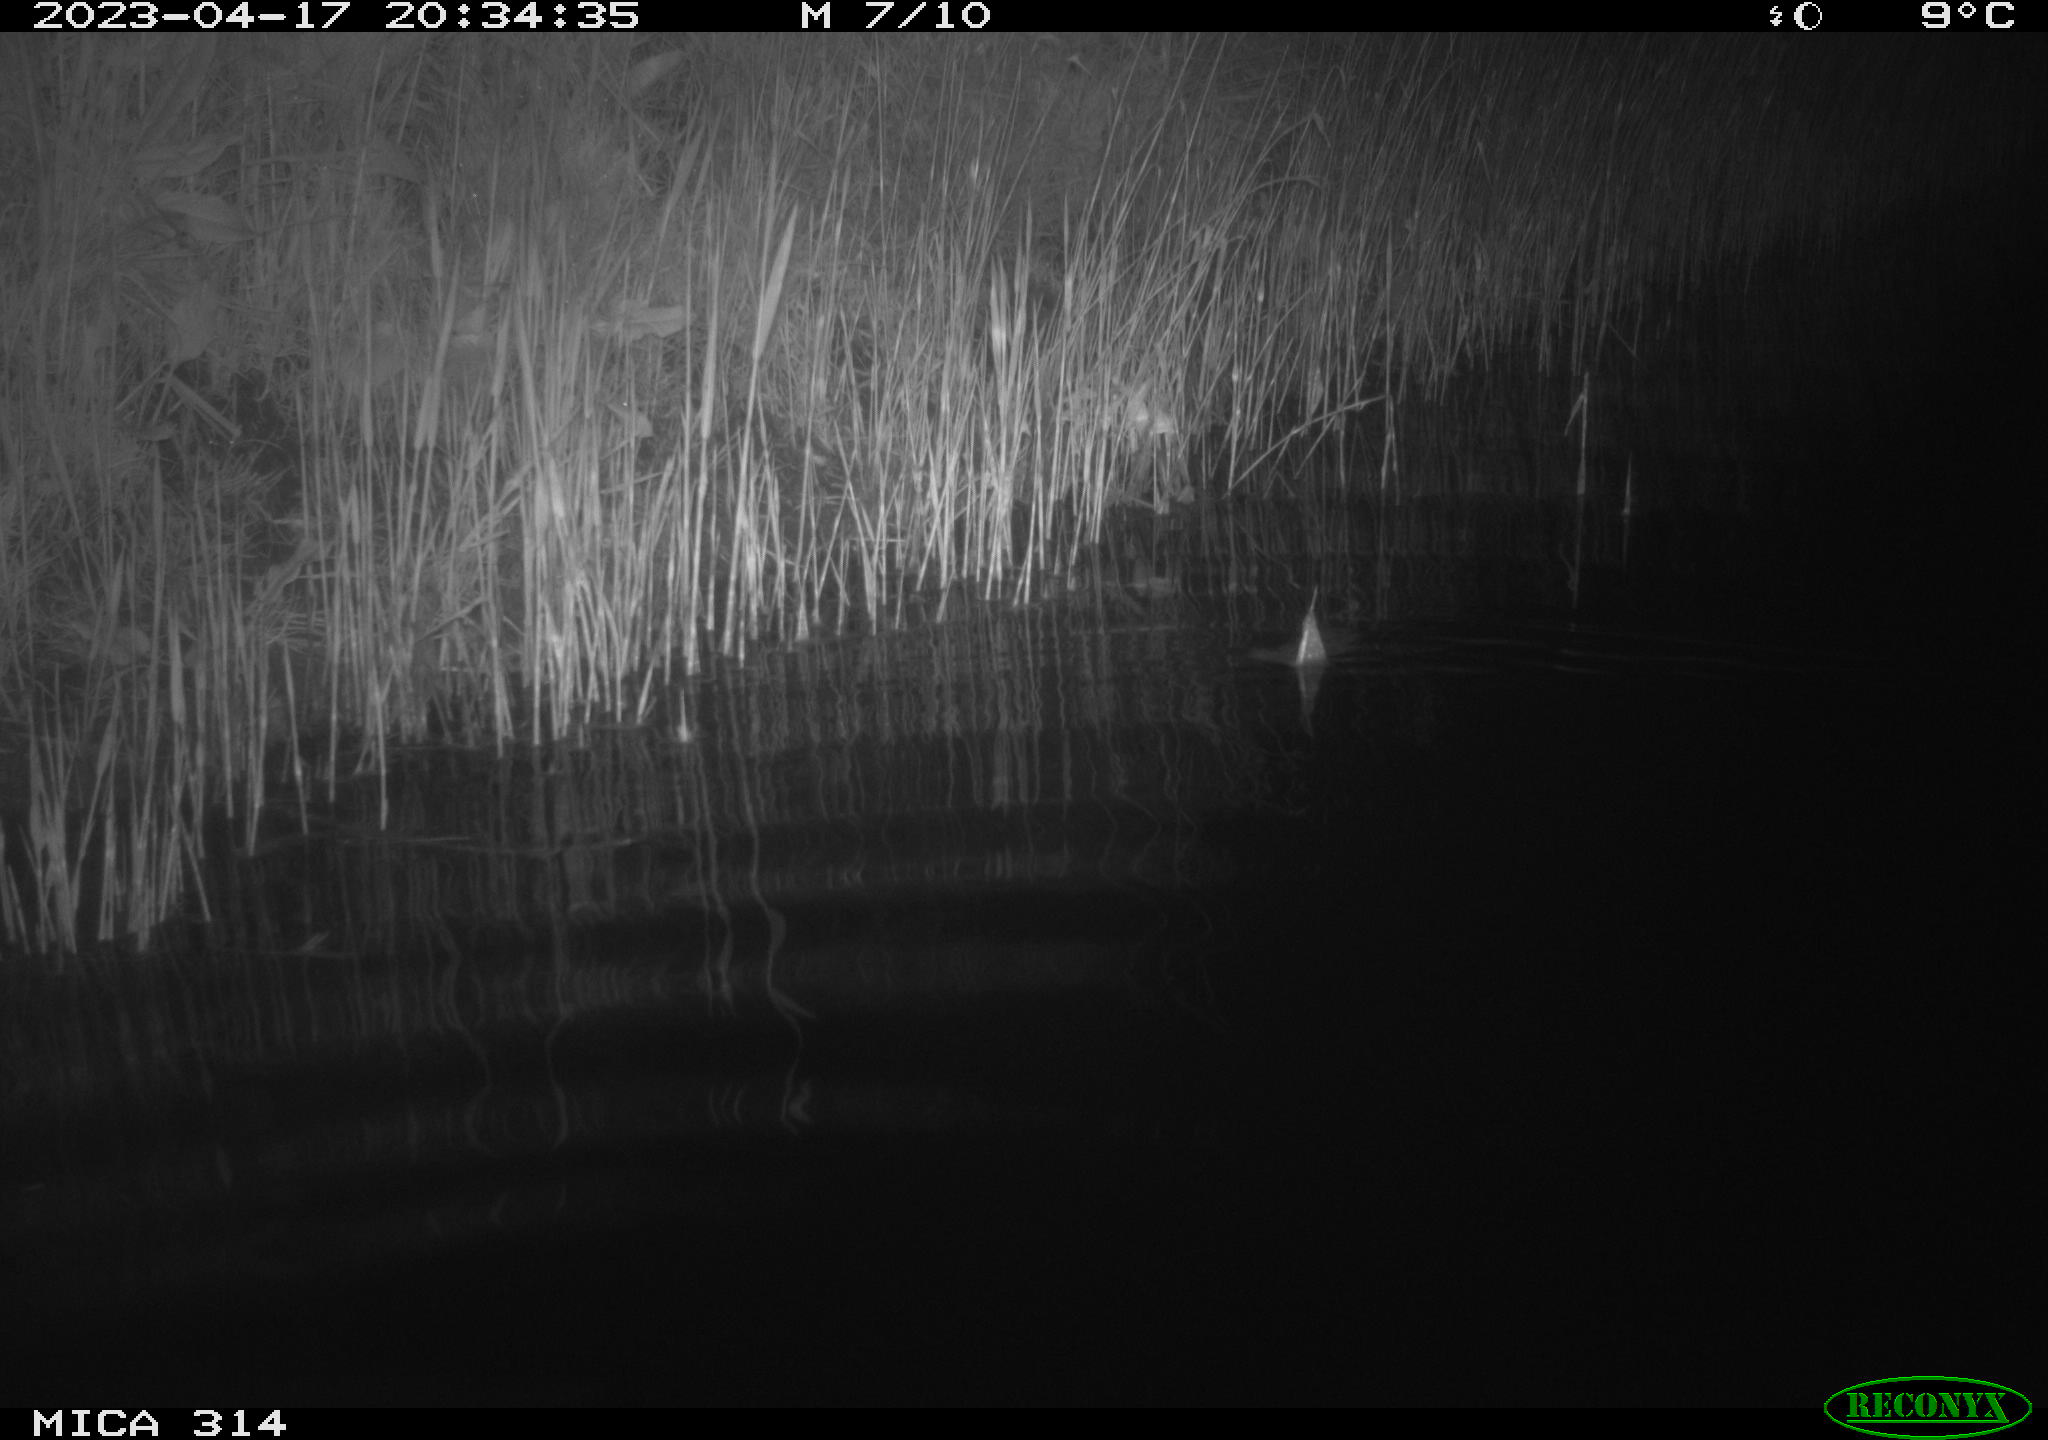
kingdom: Animalia
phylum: Chordata
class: Aves
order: Anseriformes
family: Anatidae
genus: Anas
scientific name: Anas
